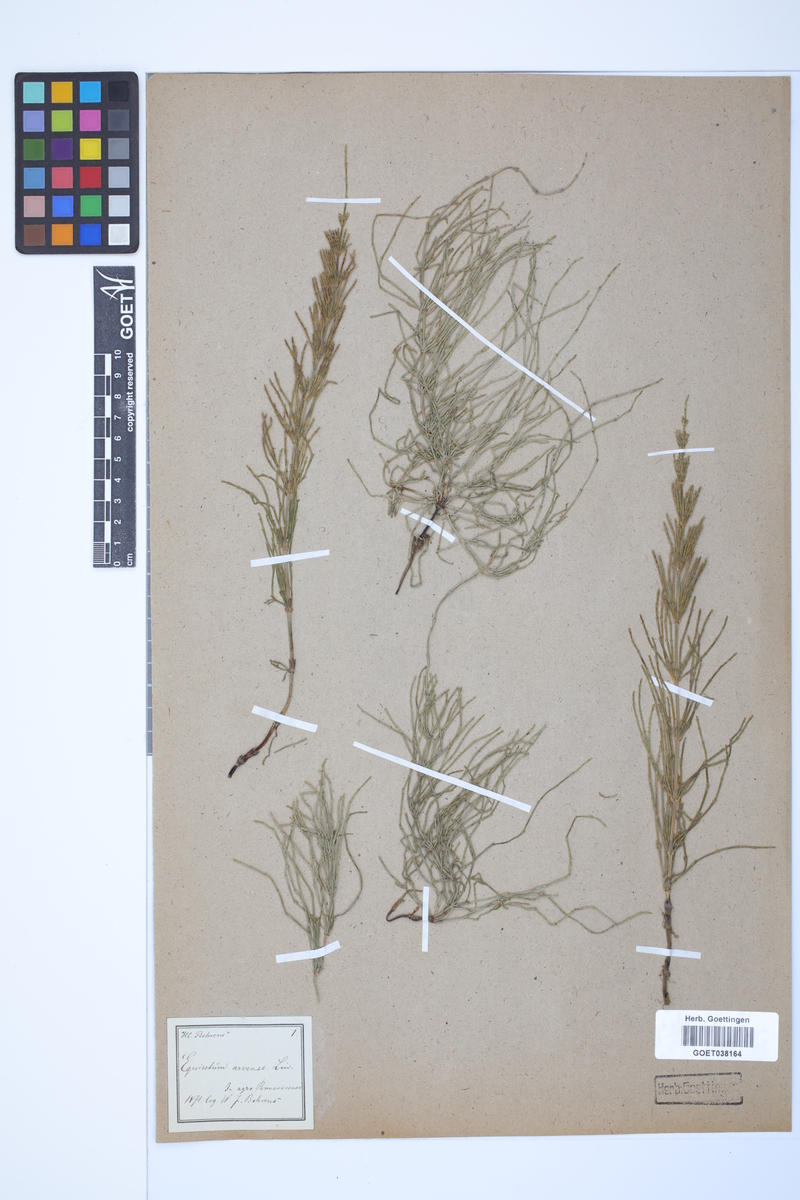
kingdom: Plantae
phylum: Tracheophyta
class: Polypodiopsida
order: Equisetales
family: Equisetaceae
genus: Equisetum
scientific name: Equisetum arvense
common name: Field horsetail
